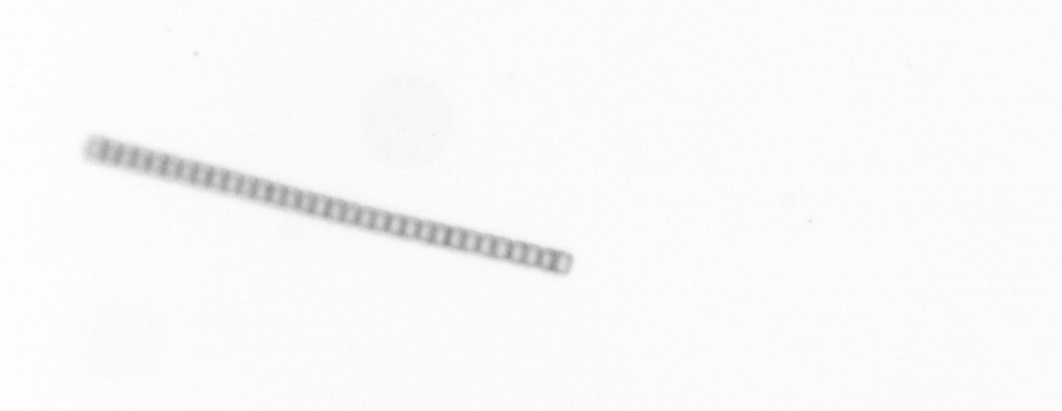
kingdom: Chromista
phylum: Ochrophyta
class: Bacillariophyceae
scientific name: Bacillariophyceae
